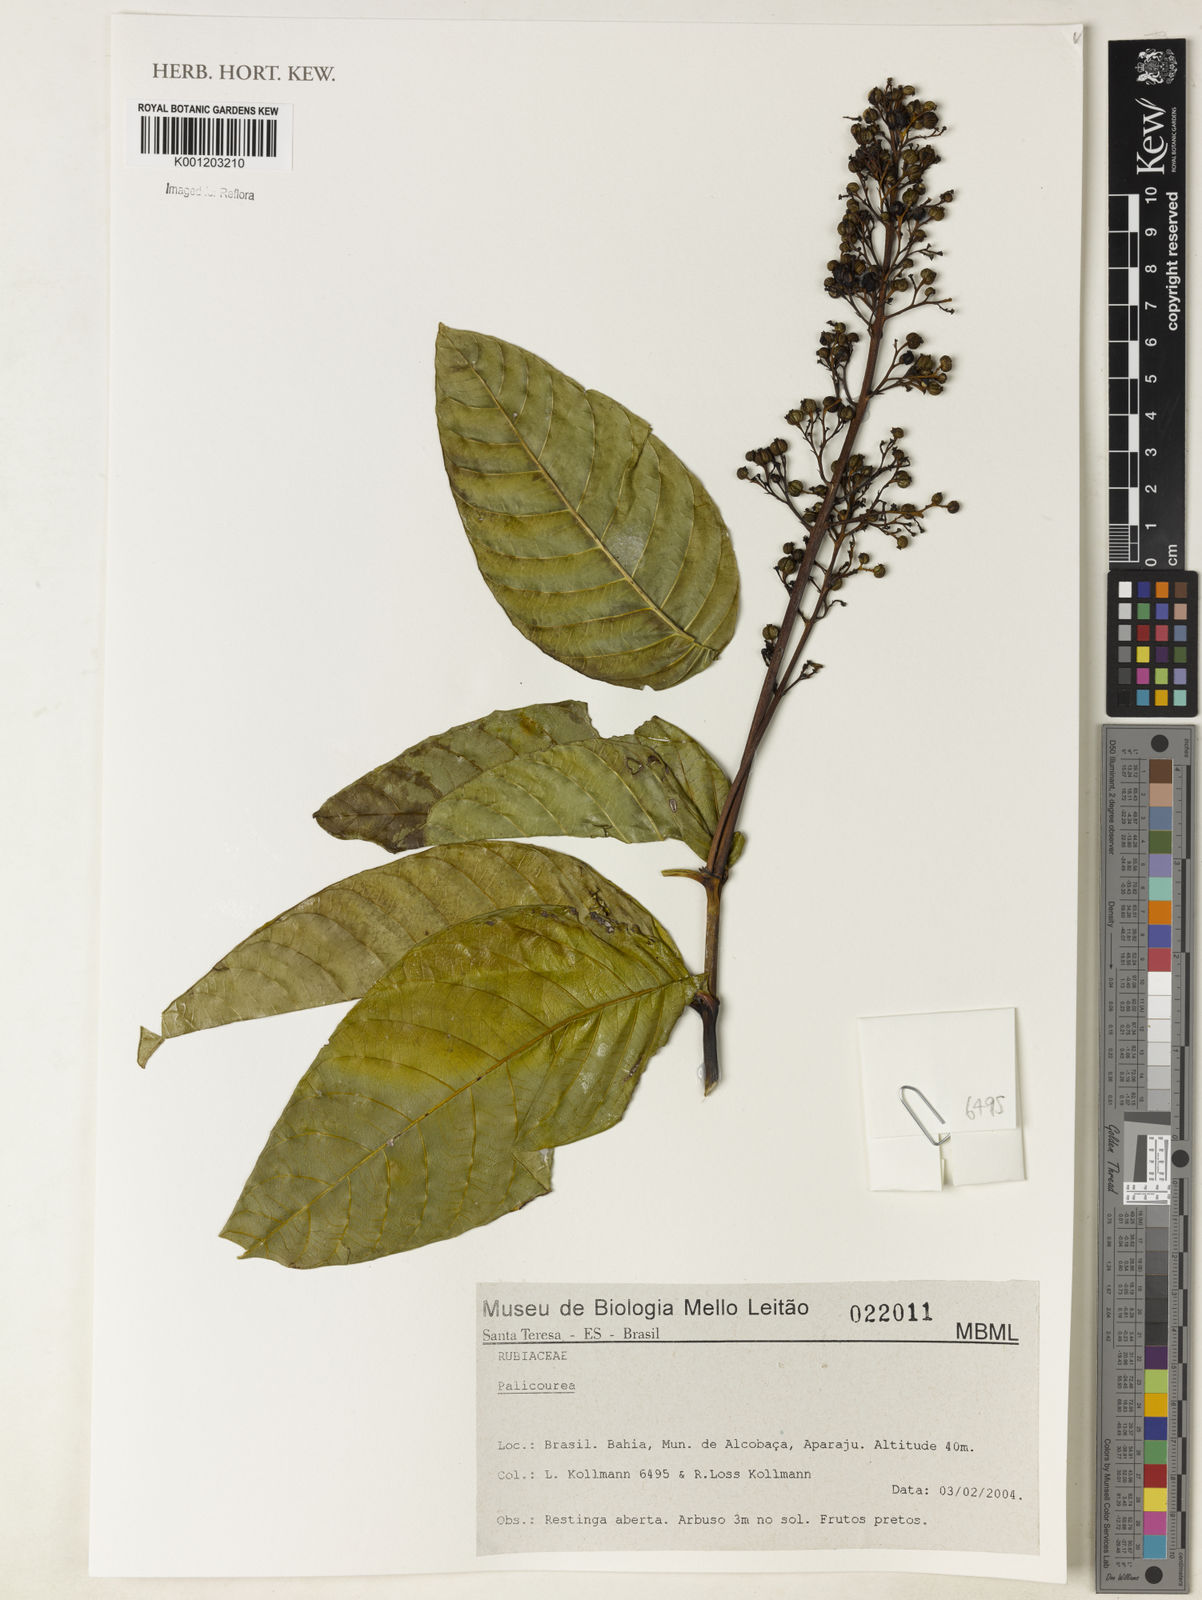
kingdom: Plantae
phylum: Tracheophyta
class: Magnoliopsida
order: Gentianales
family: Rubiaceae
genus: Palicourea
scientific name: Palicourea
